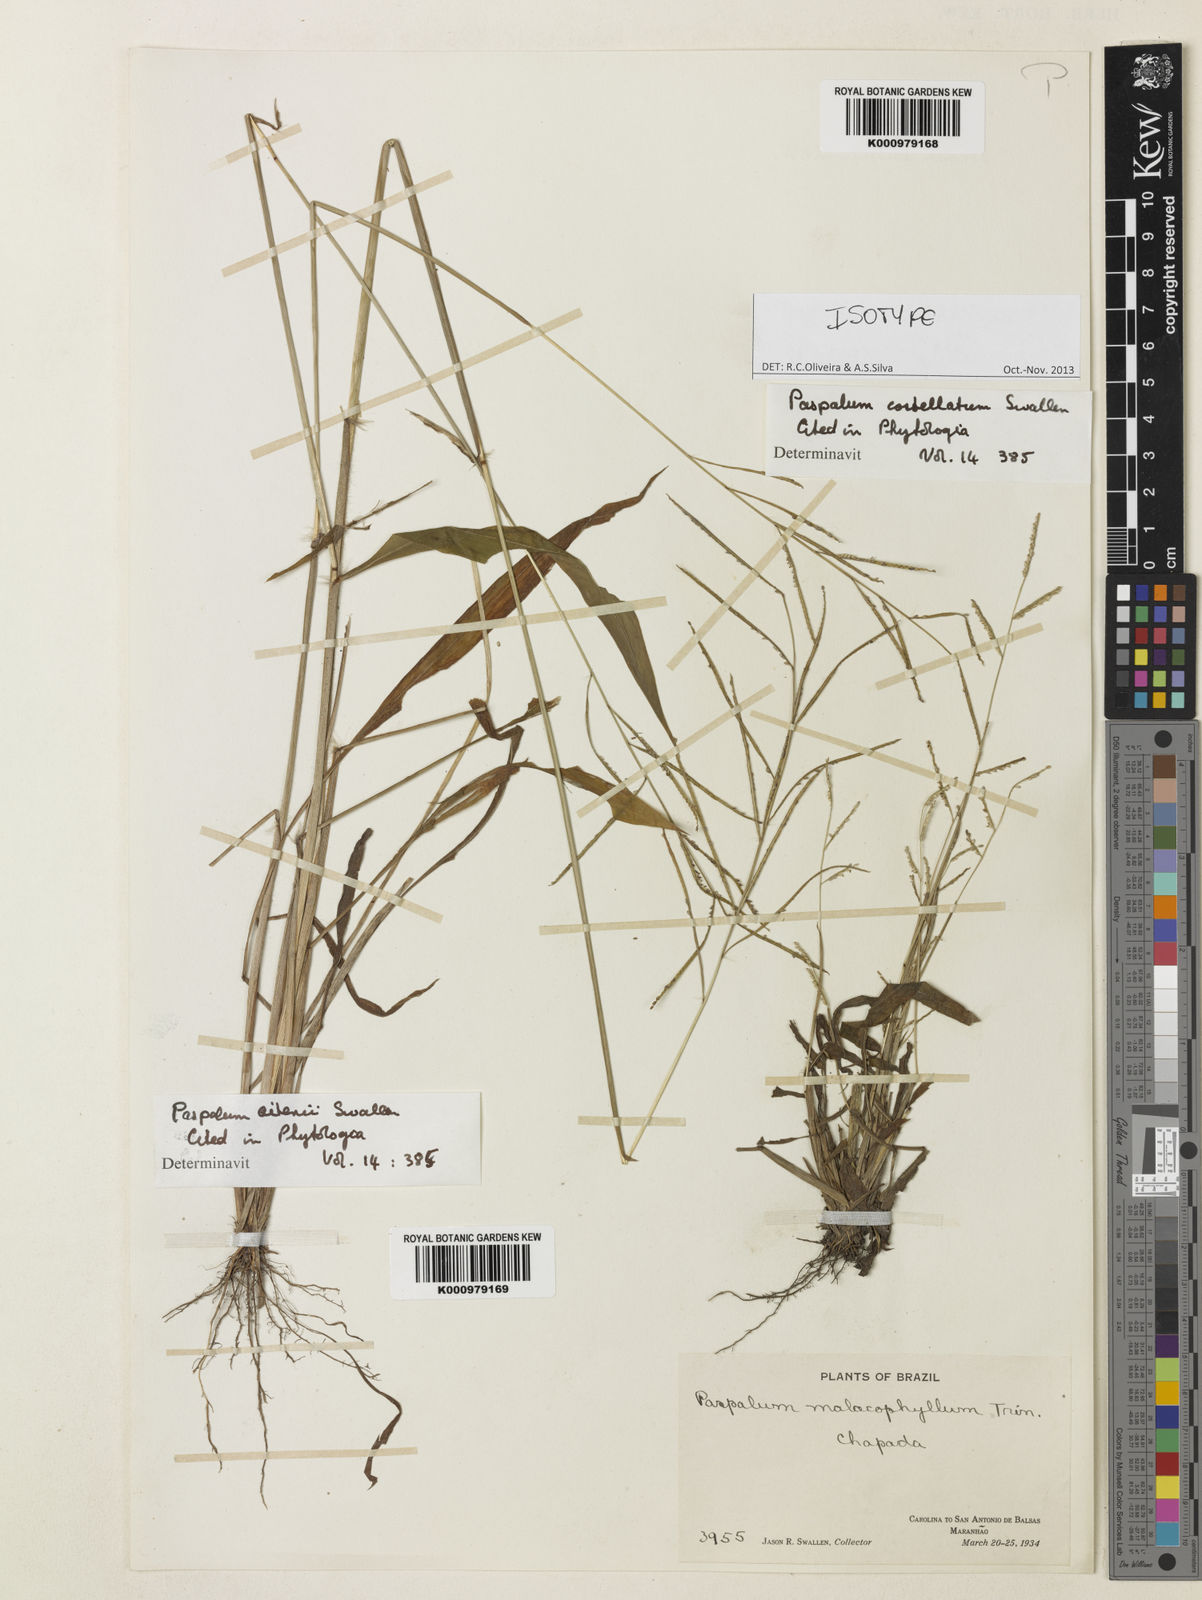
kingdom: Plantae
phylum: Tracheophyta
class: Liliopsida
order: Poales
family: Poaceae
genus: Paspalum
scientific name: Paspalum costellatum
